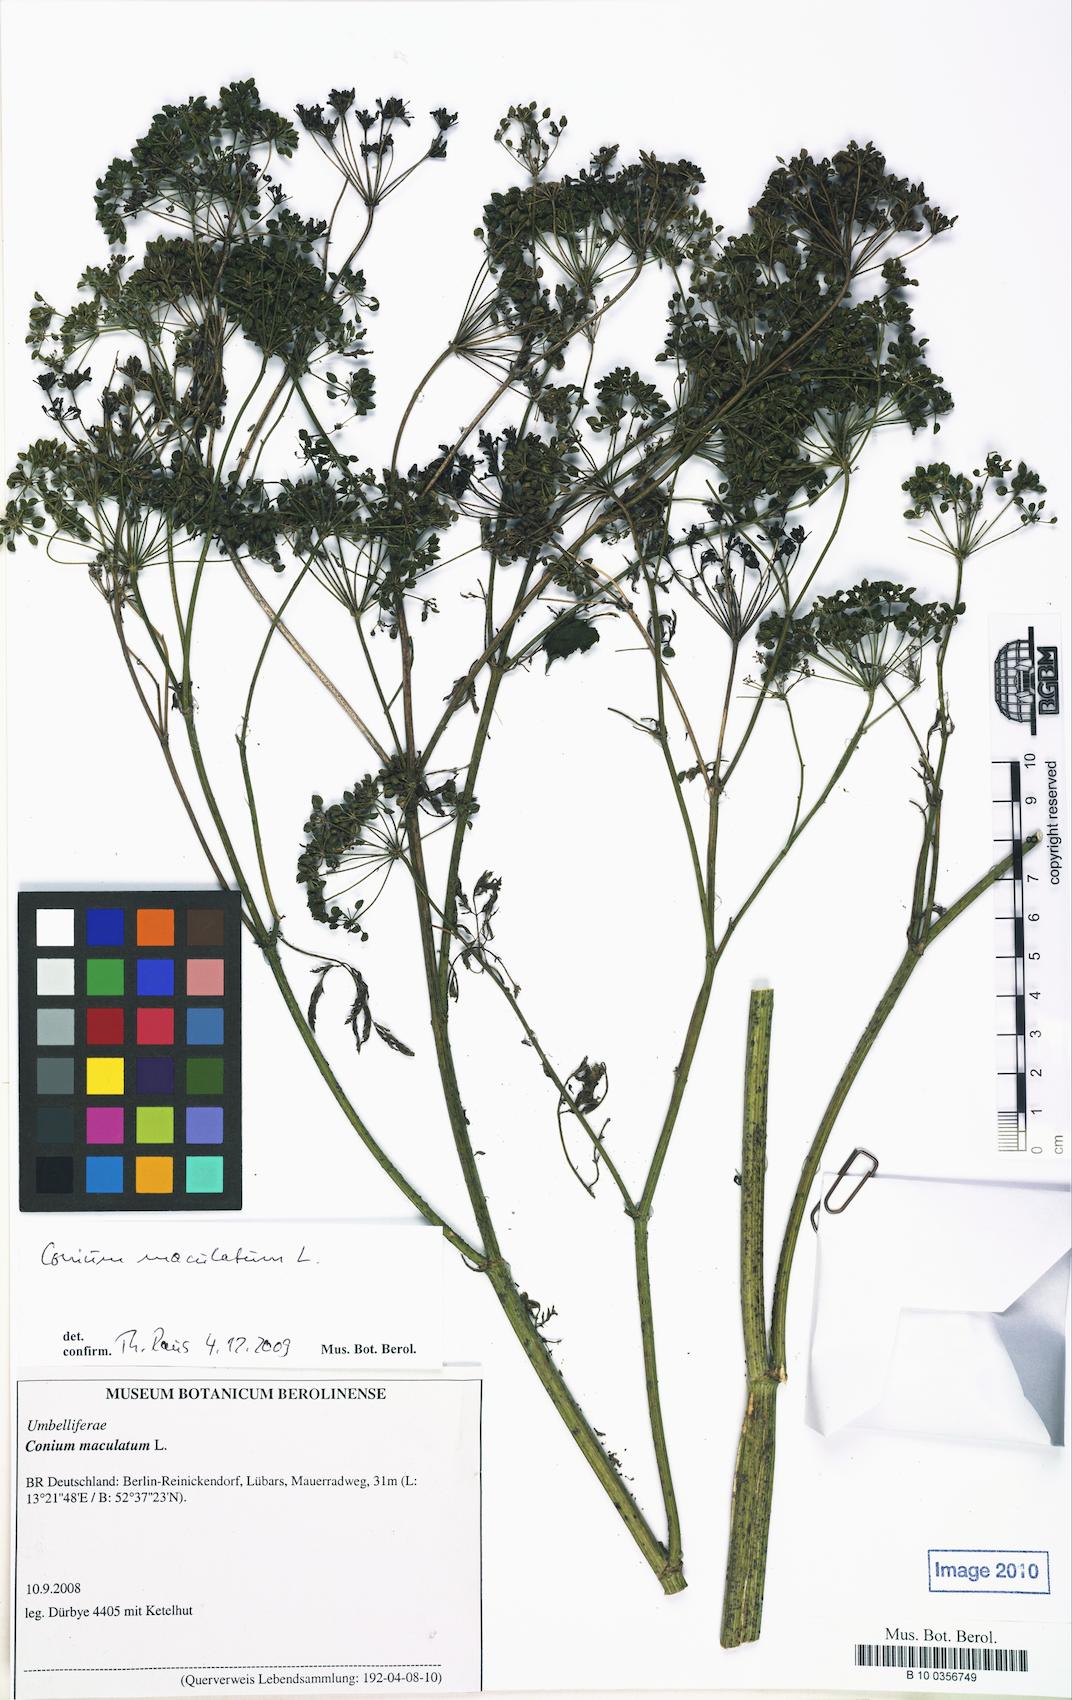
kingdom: Plantae
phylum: Tracheophyta
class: Magnoliopsida
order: Apiales
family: Apiaceae
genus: Conium
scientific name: Conium maculatum
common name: Hemlock
